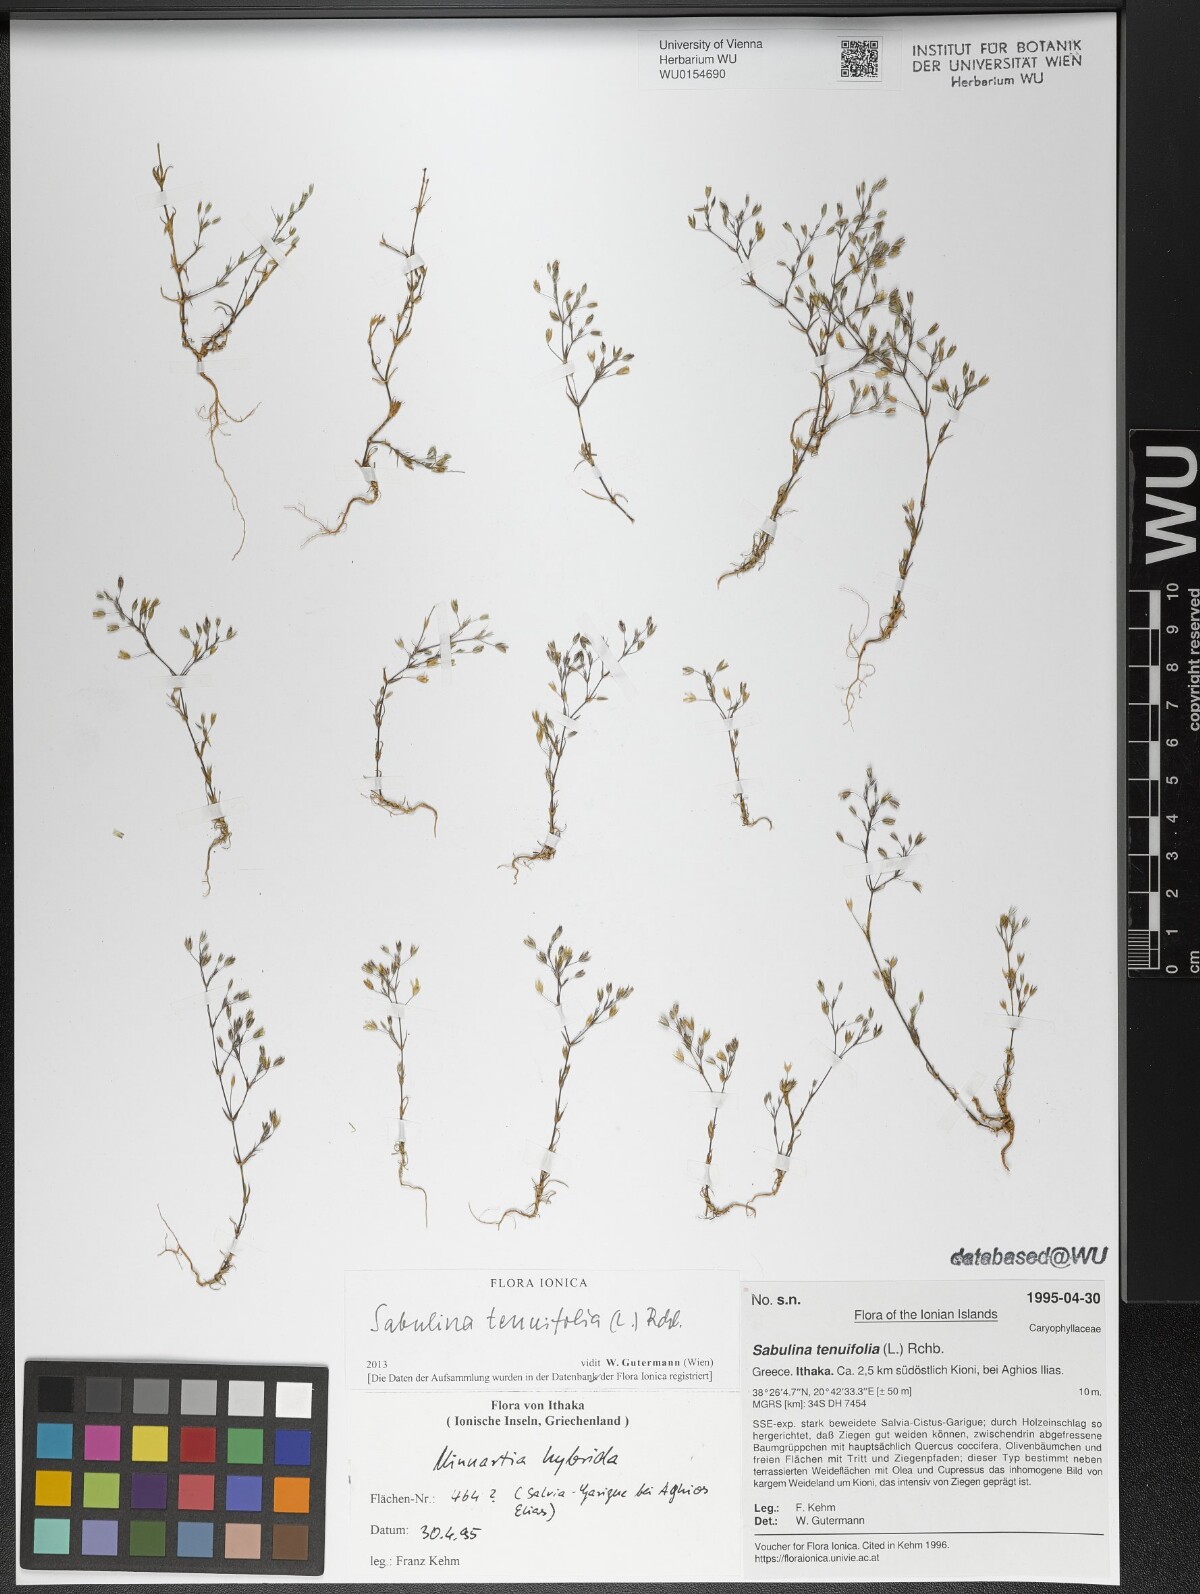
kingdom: Plantae
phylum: Tracheophyta
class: Magnoliopsida
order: Caryophyllales
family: Caryophyllaceae
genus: Sabulina
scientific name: Sabulina tenuifolia
